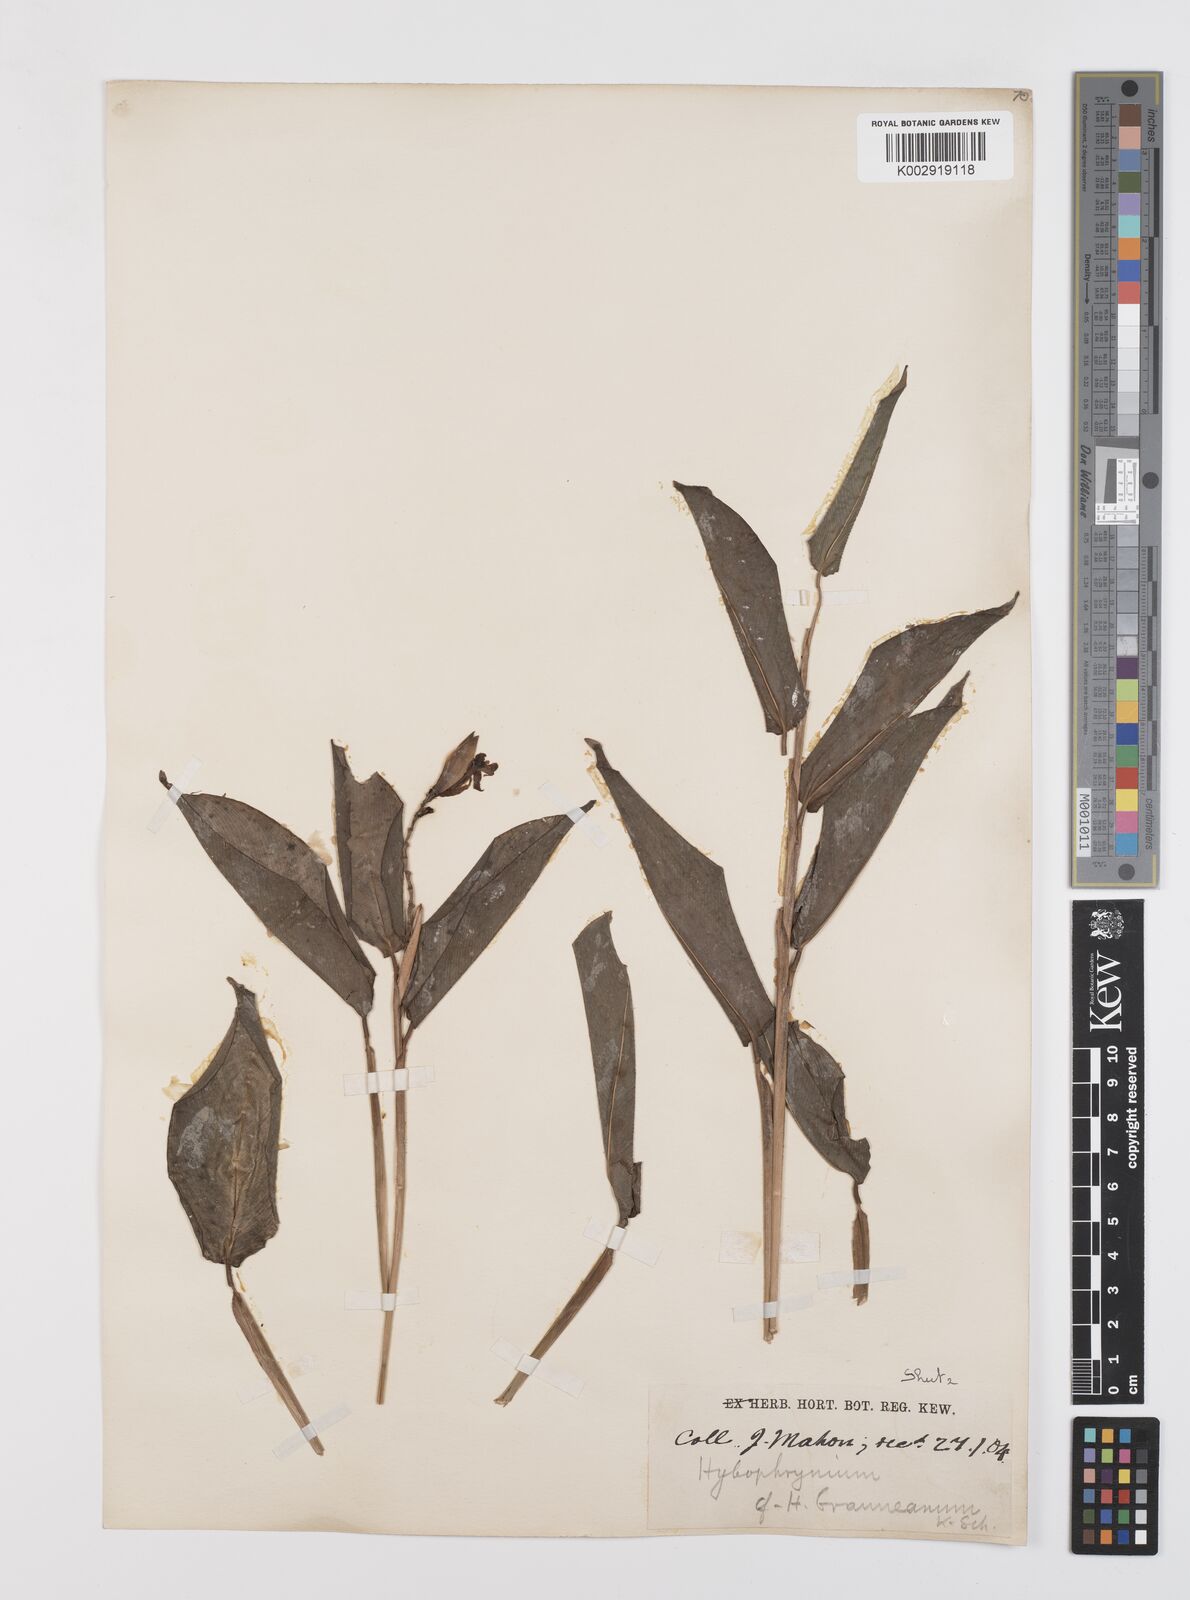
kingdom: Plantae
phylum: Tracheophyta
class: Liliopsida
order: Zingiberales
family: Marantaceae
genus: Trachyphrynium
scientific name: Trachyphrynium braunianum
